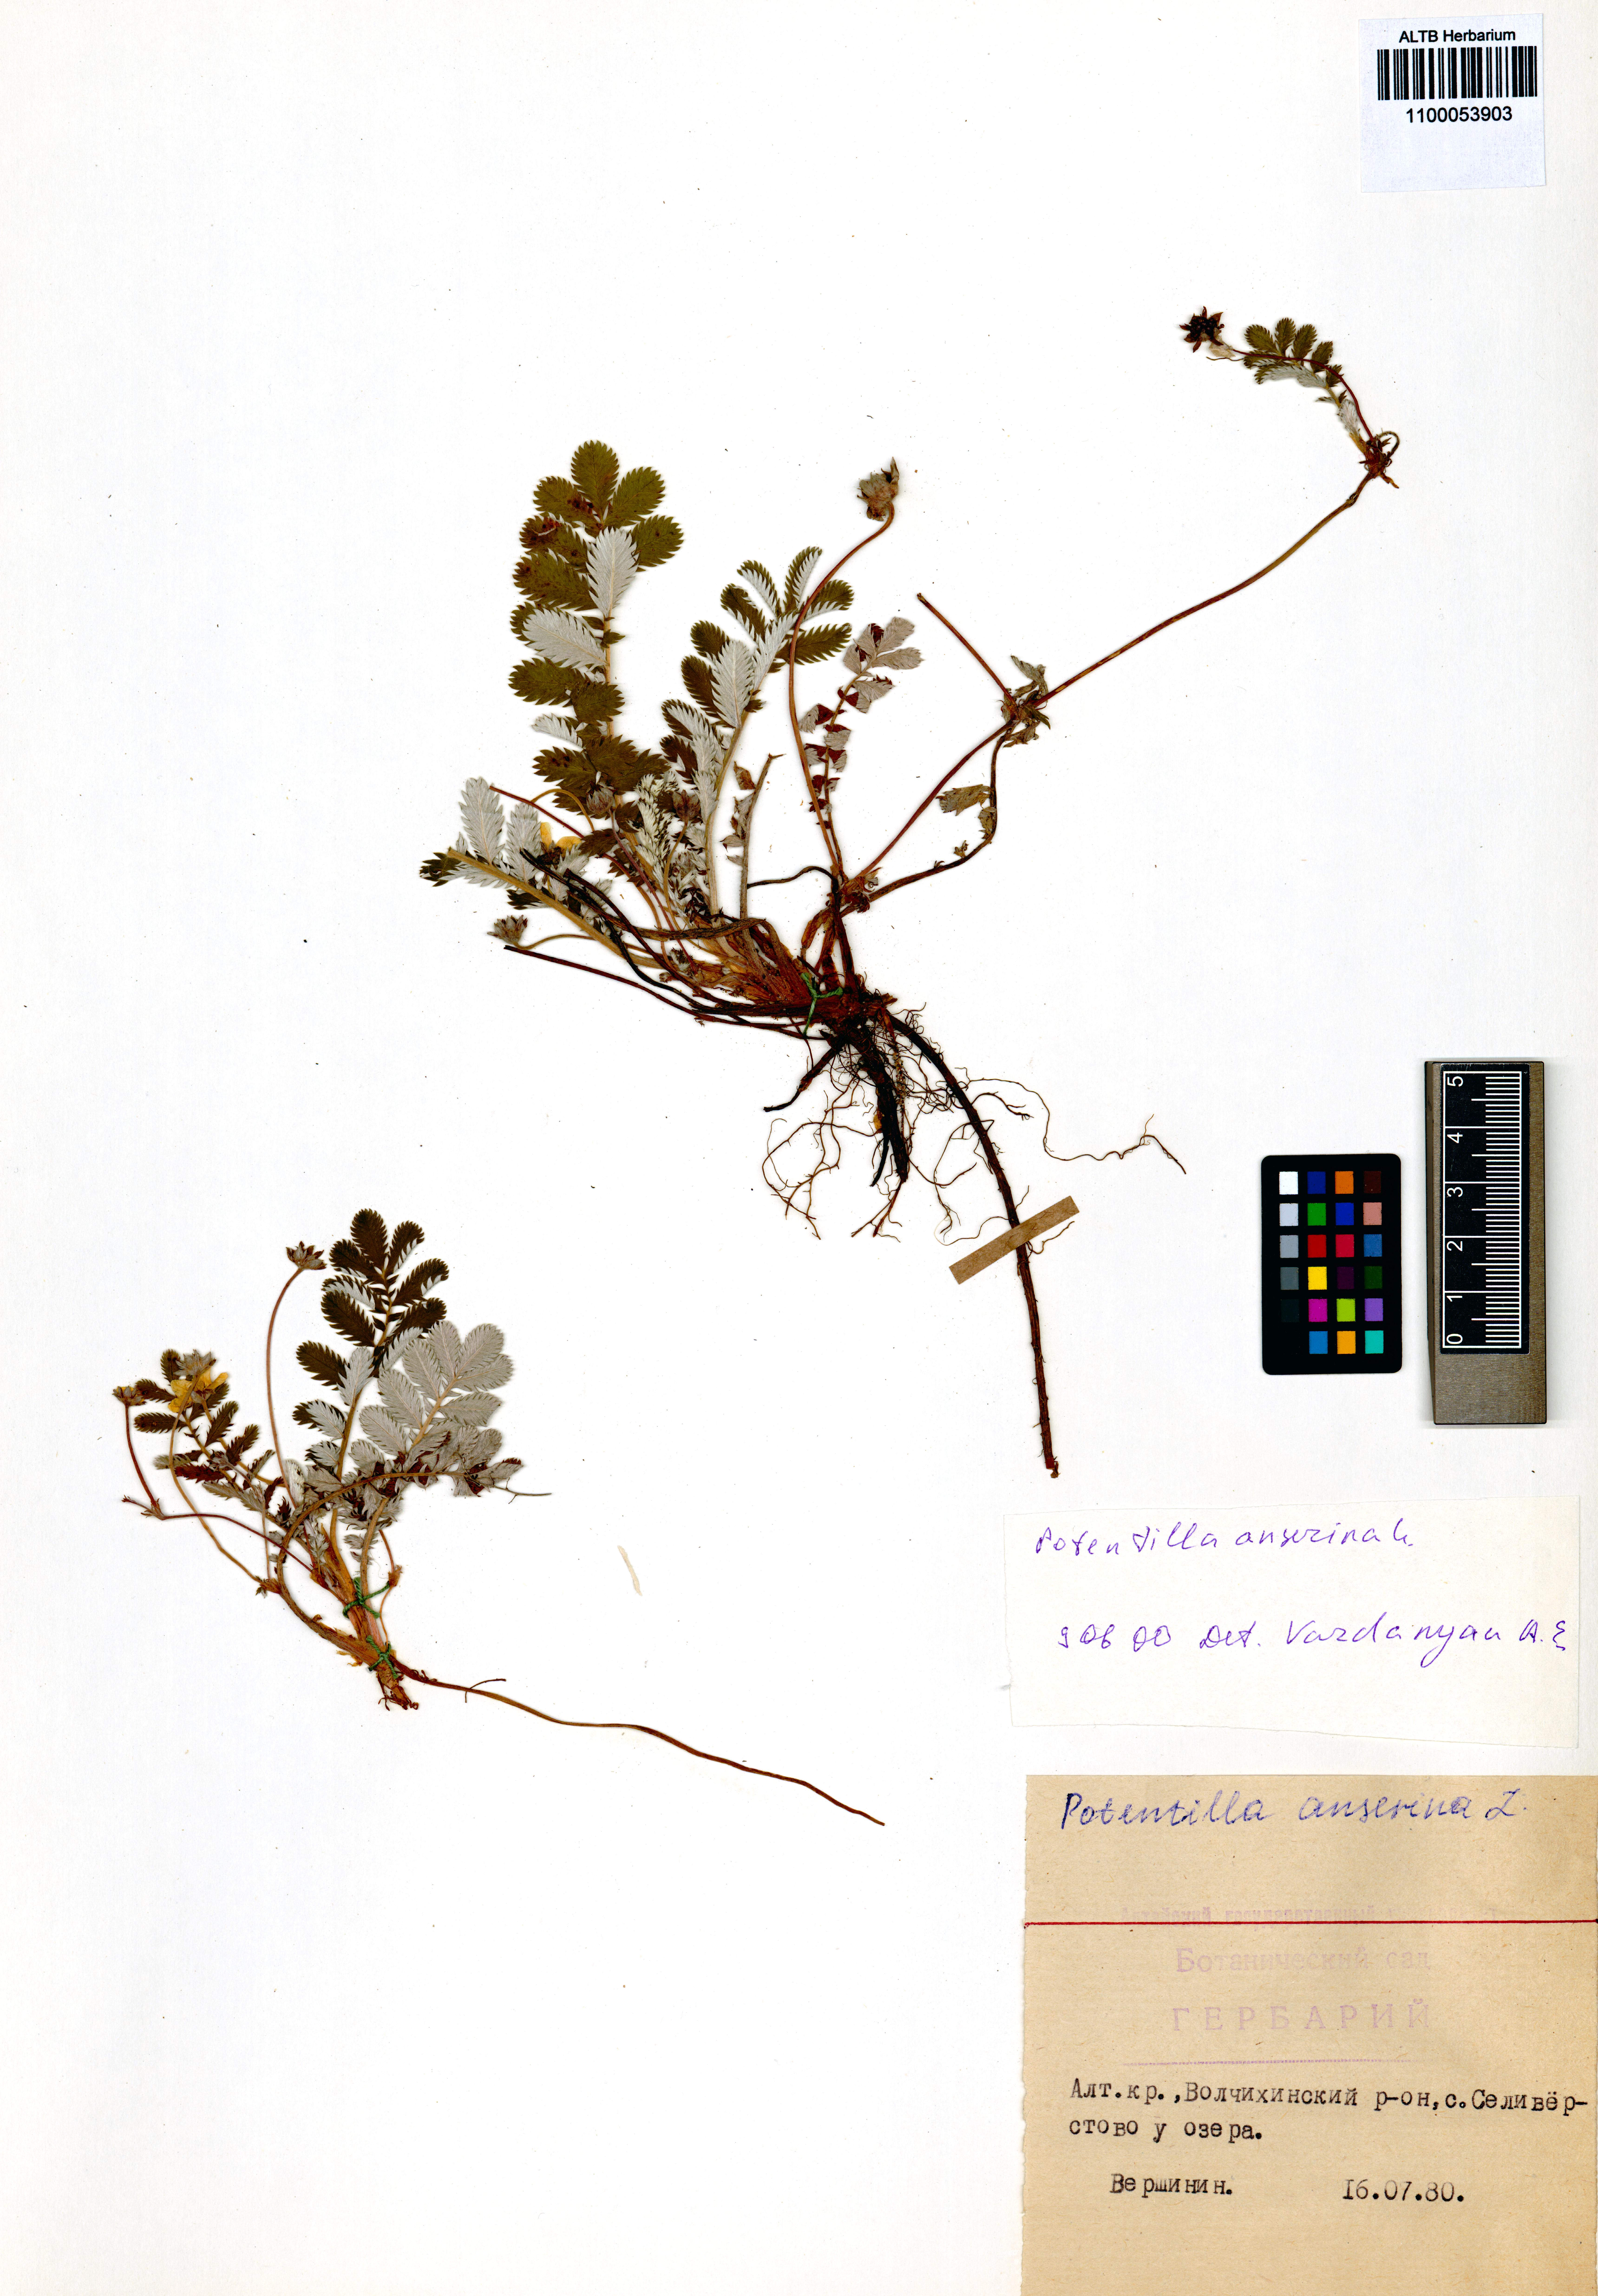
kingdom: Plantae
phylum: Tracheophyta
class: Magnoliopsida
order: Rosales
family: Rosaceae
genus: Argentina
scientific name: Argentina anserina
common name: Common silverweed
